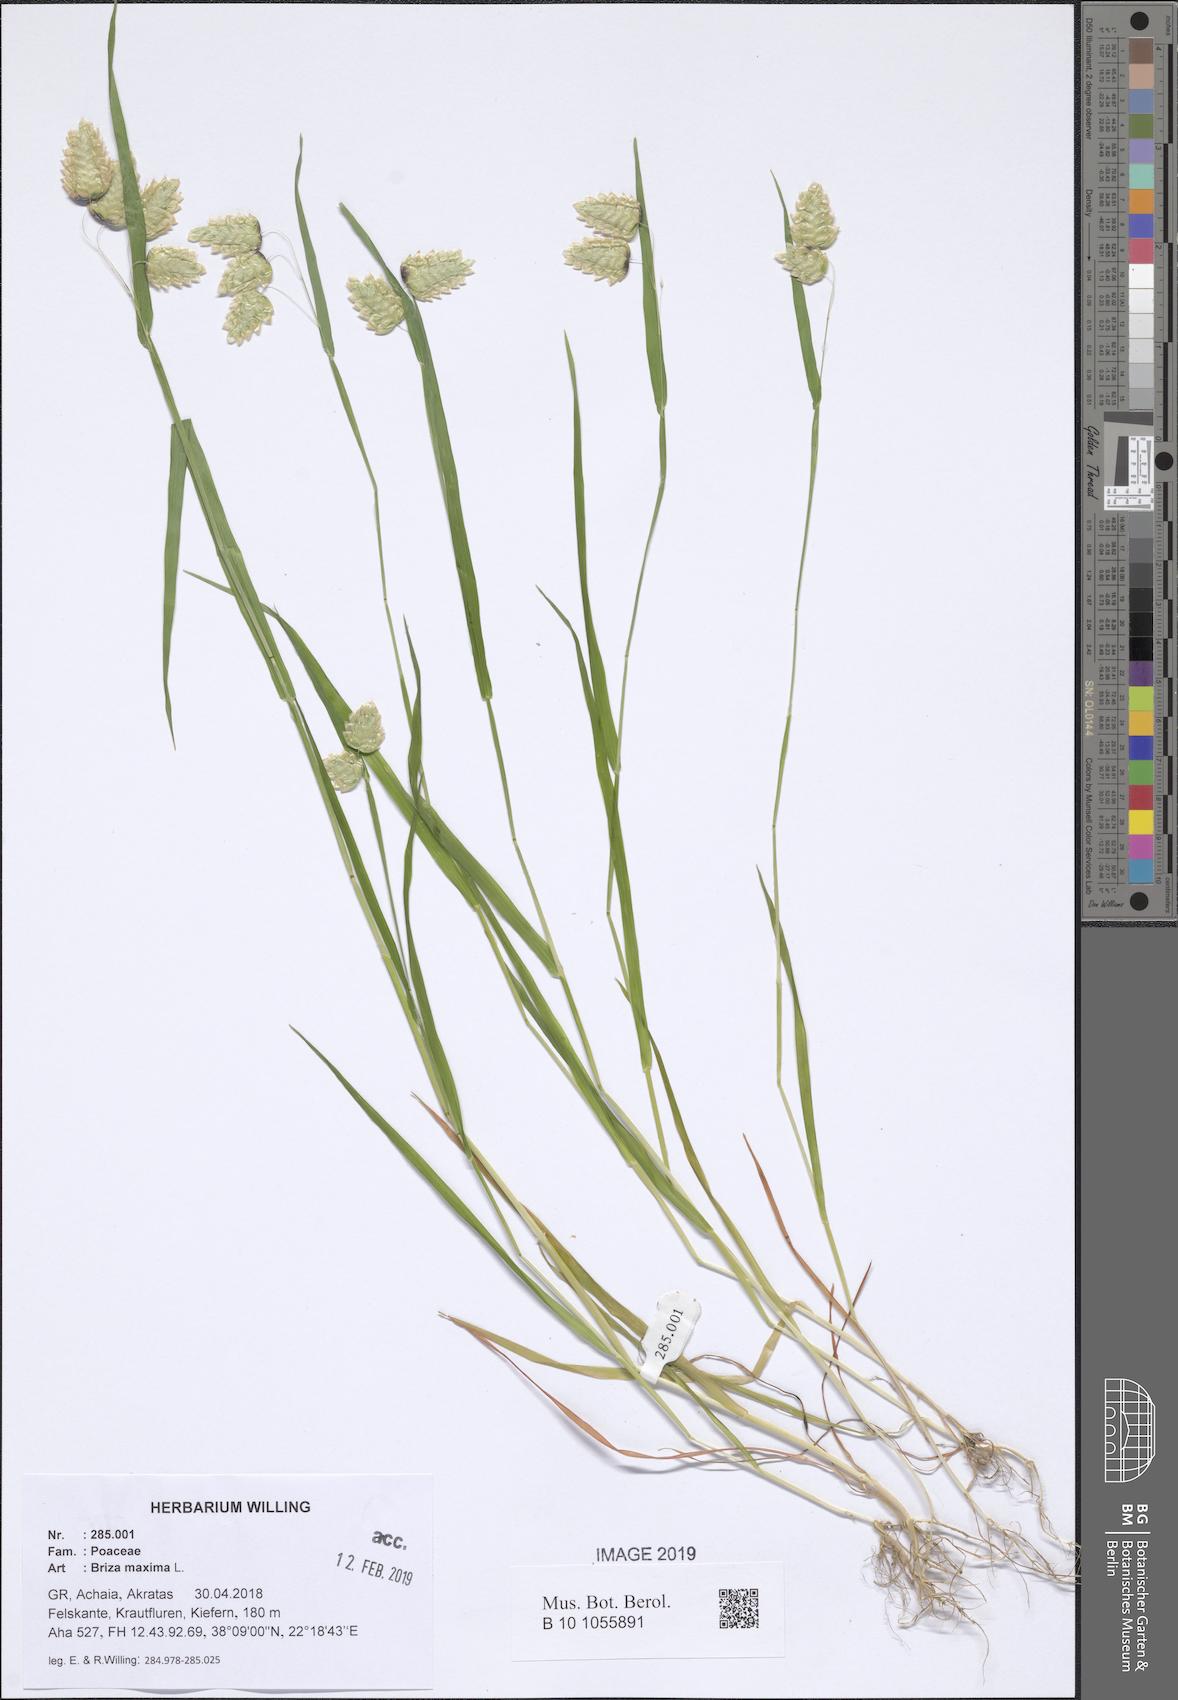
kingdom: Plantae
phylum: Tracheophyta
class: Liliopsida
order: Poales
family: Poaceae
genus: Briza
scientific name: Briza maxima
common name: Big quakinggrass
